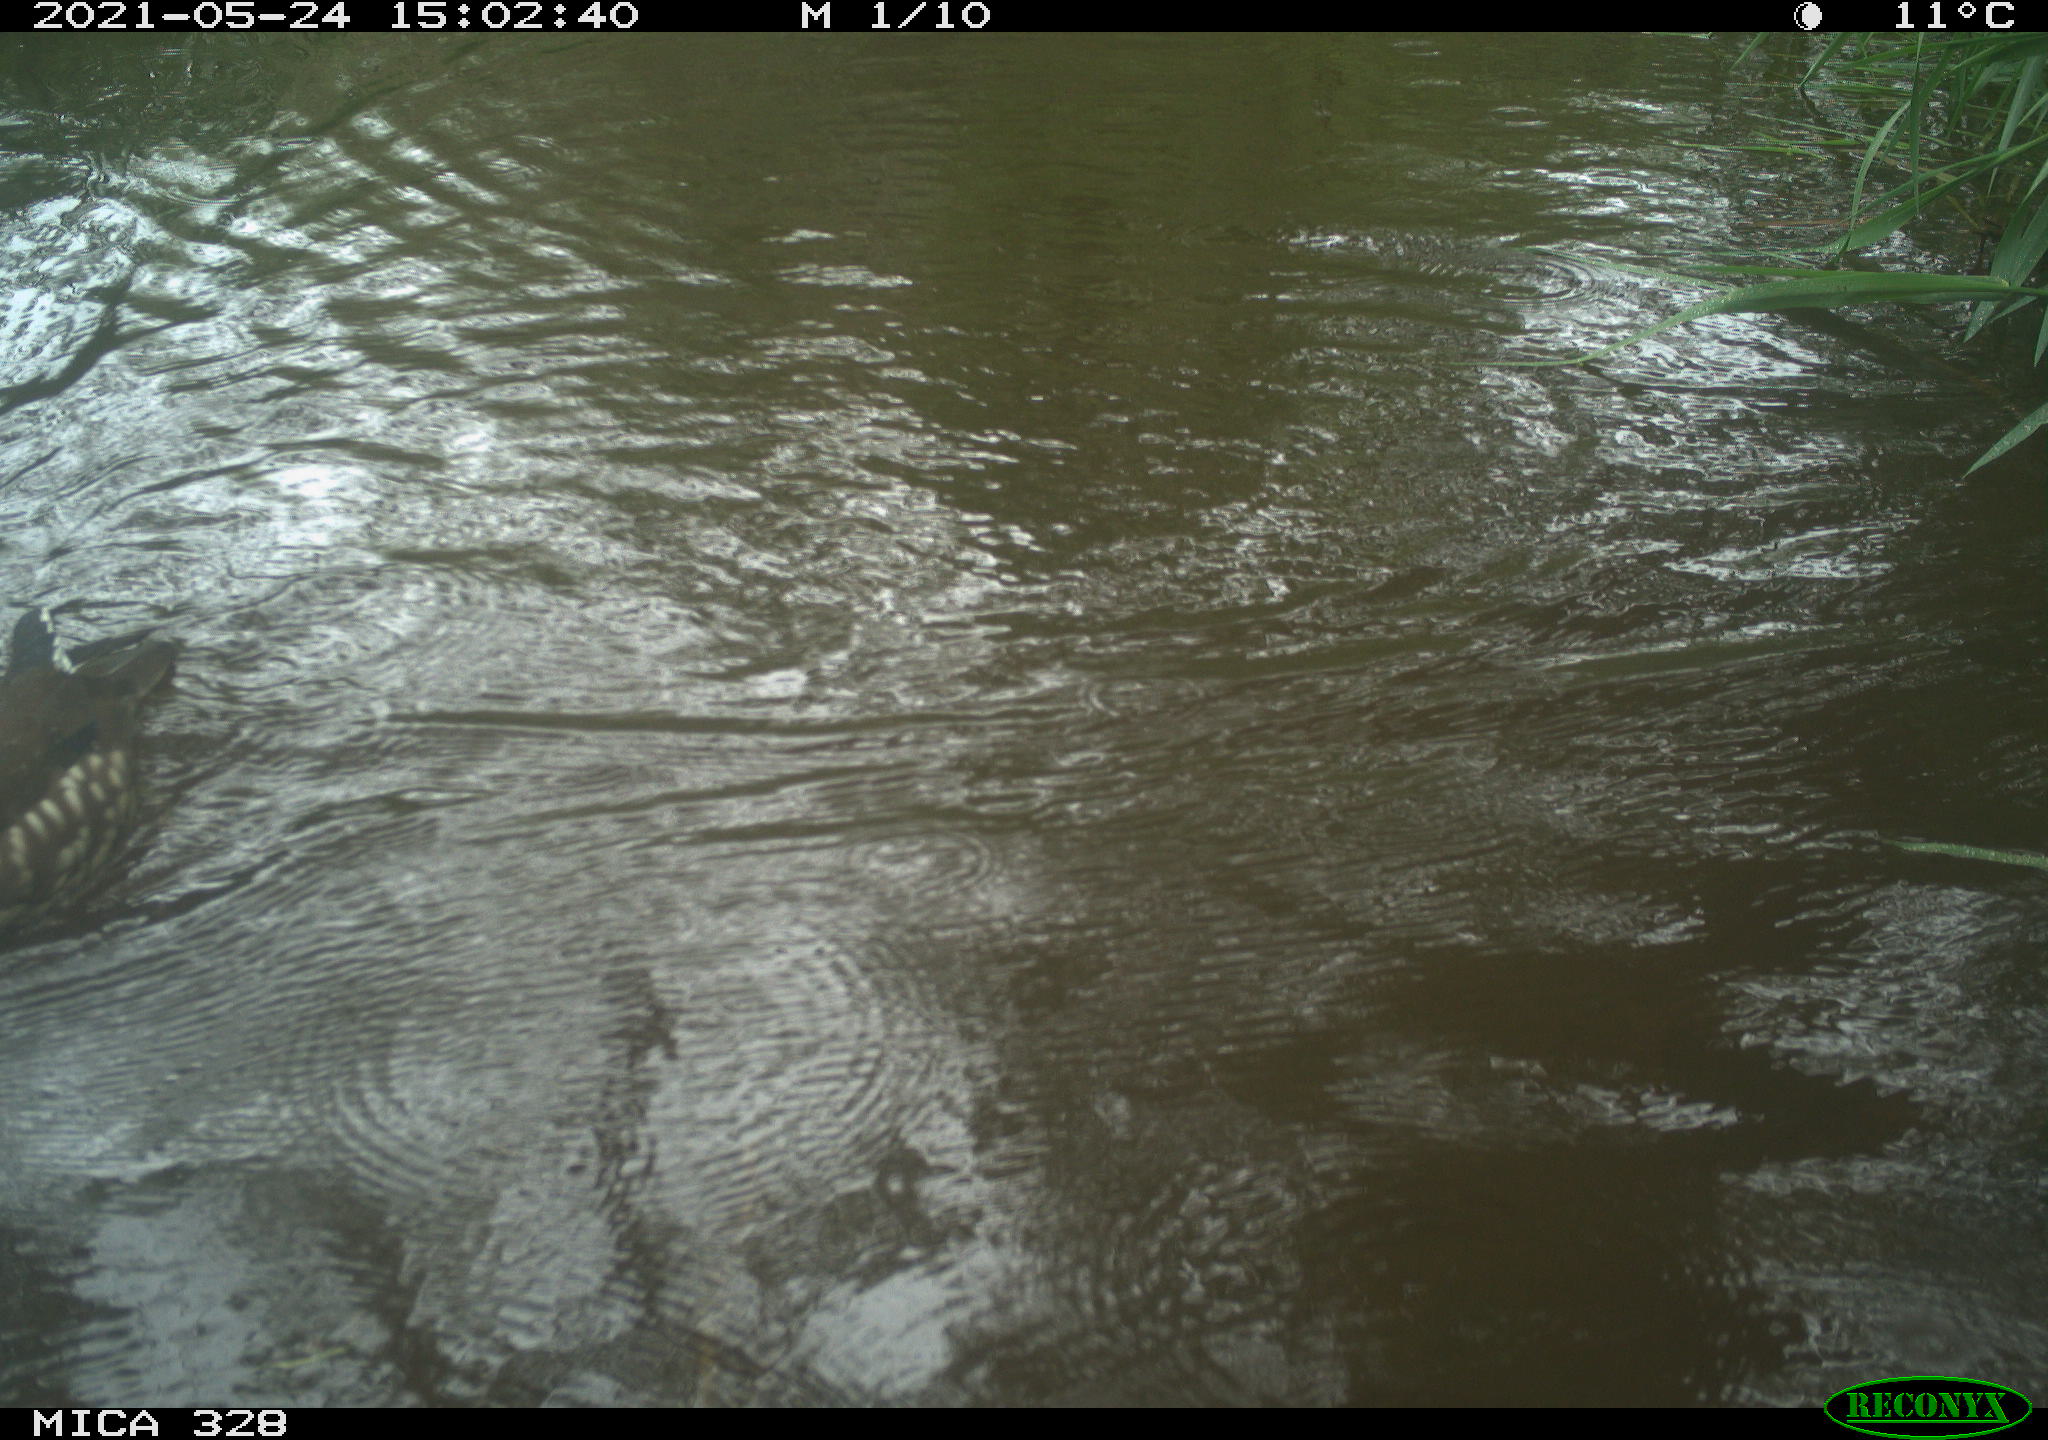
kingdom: Animalia
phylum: Chordata
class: Aves
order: Anseriformes
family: Anatidae
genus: Aix
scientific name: Aix galericulata
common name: Mandarin duck
